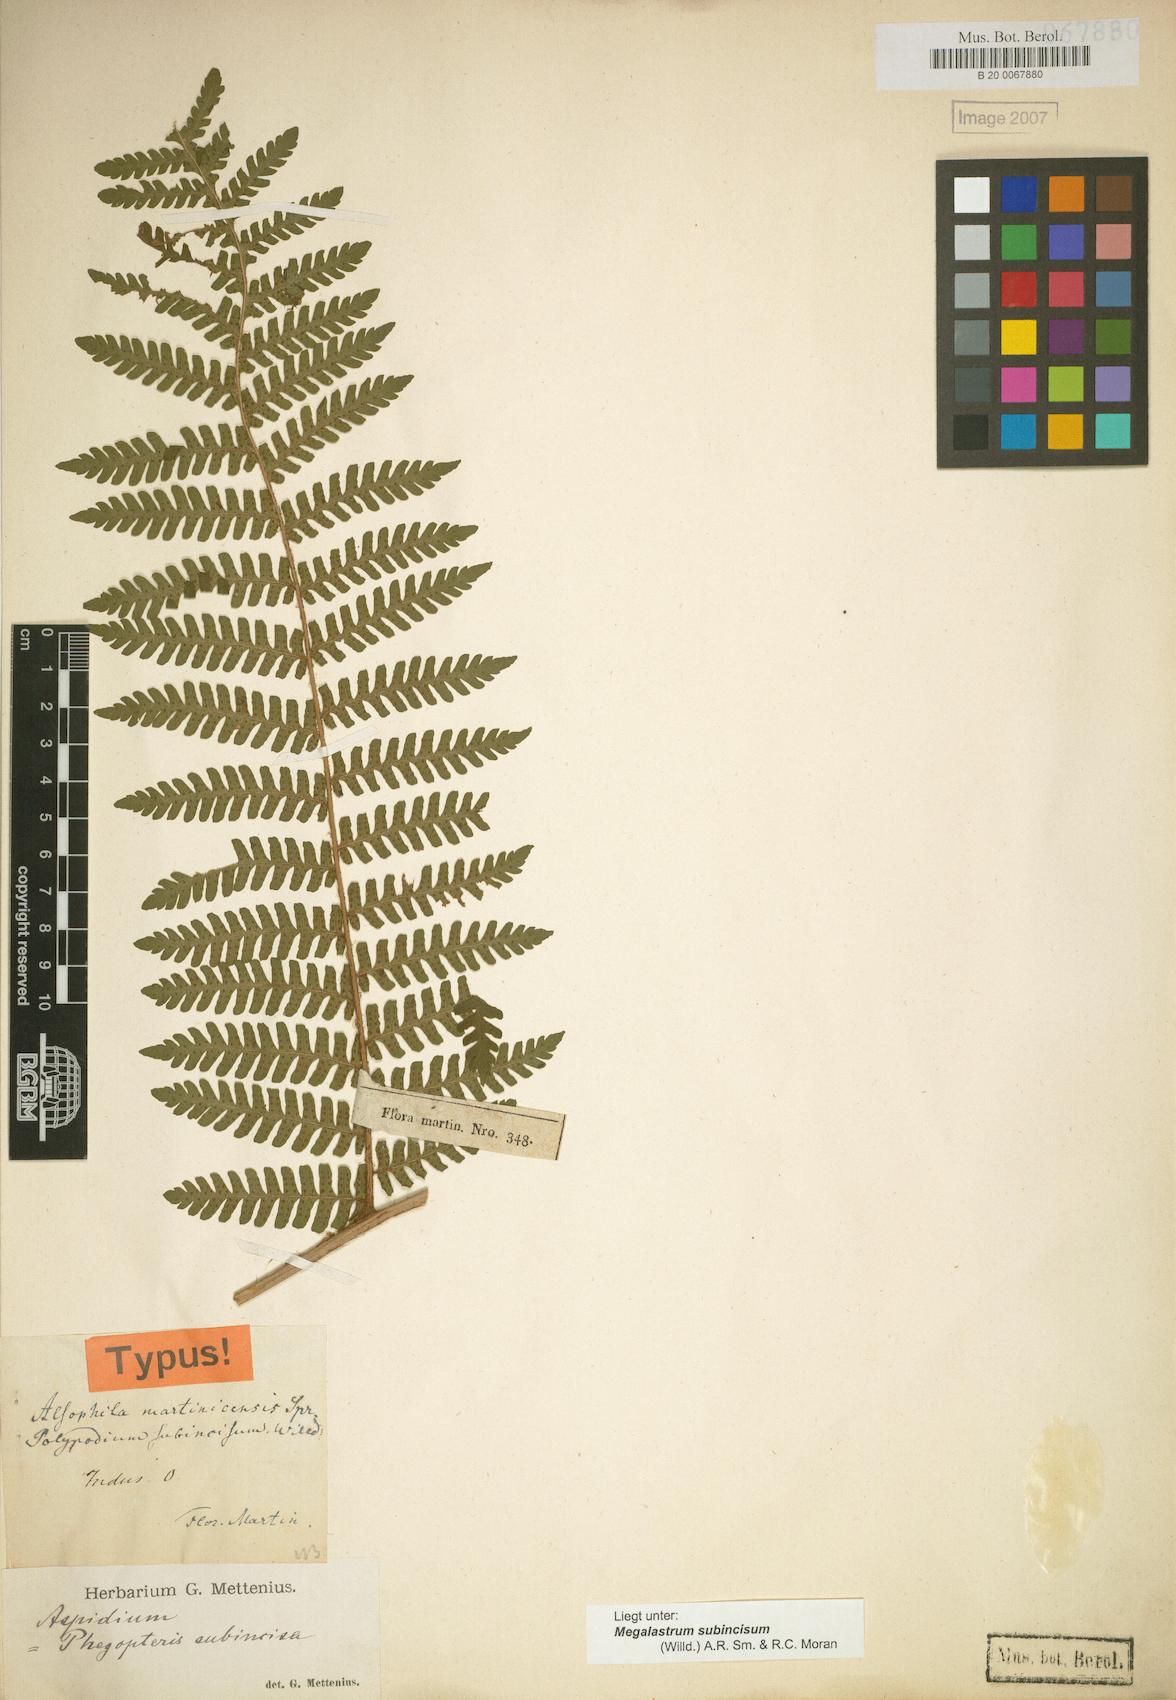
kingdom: Plantae
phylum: Tracheophyta
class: Polypodiopsida
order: Polypodiales
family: Dryopteridaceae
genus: Megalastrum
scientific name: Megalastrum martinicense
